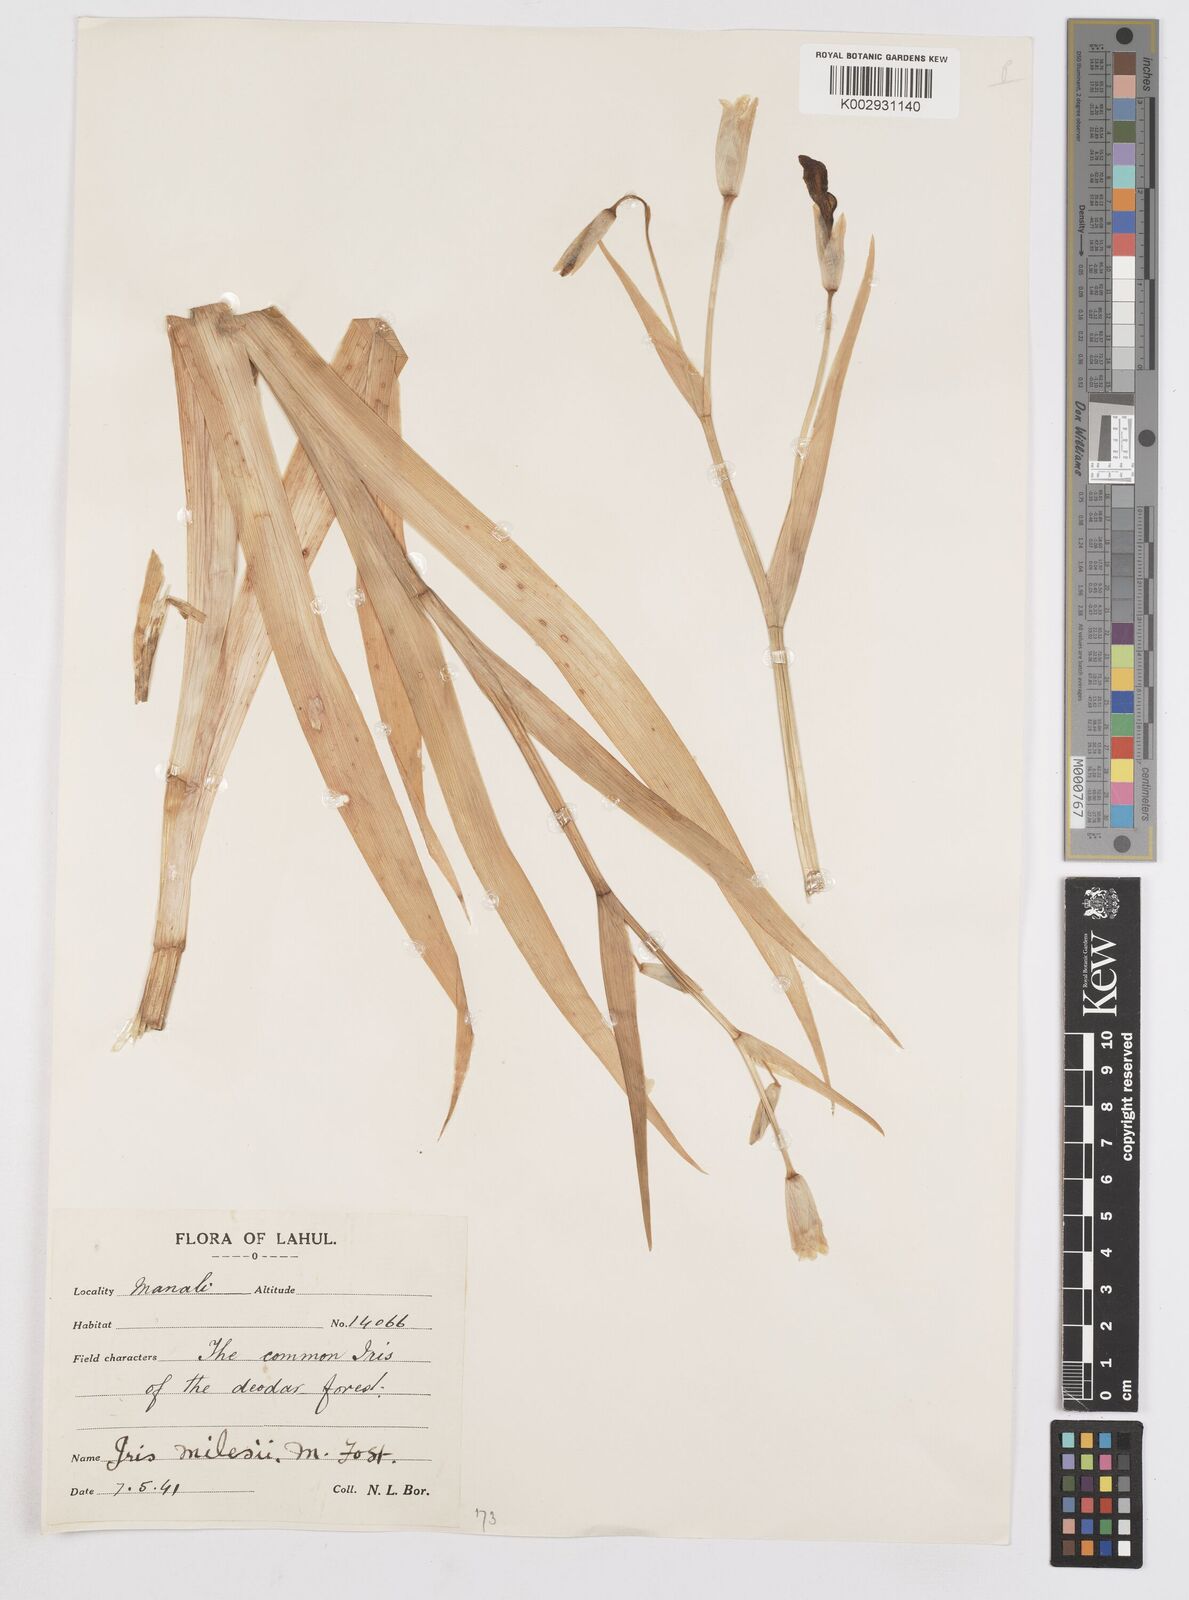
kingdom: Plantae
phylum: Tracheophyta
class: Liliopsida
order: Asparagales
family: Iridaceae
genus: Iris
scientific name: Iris milesii
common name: Red-flower iris
